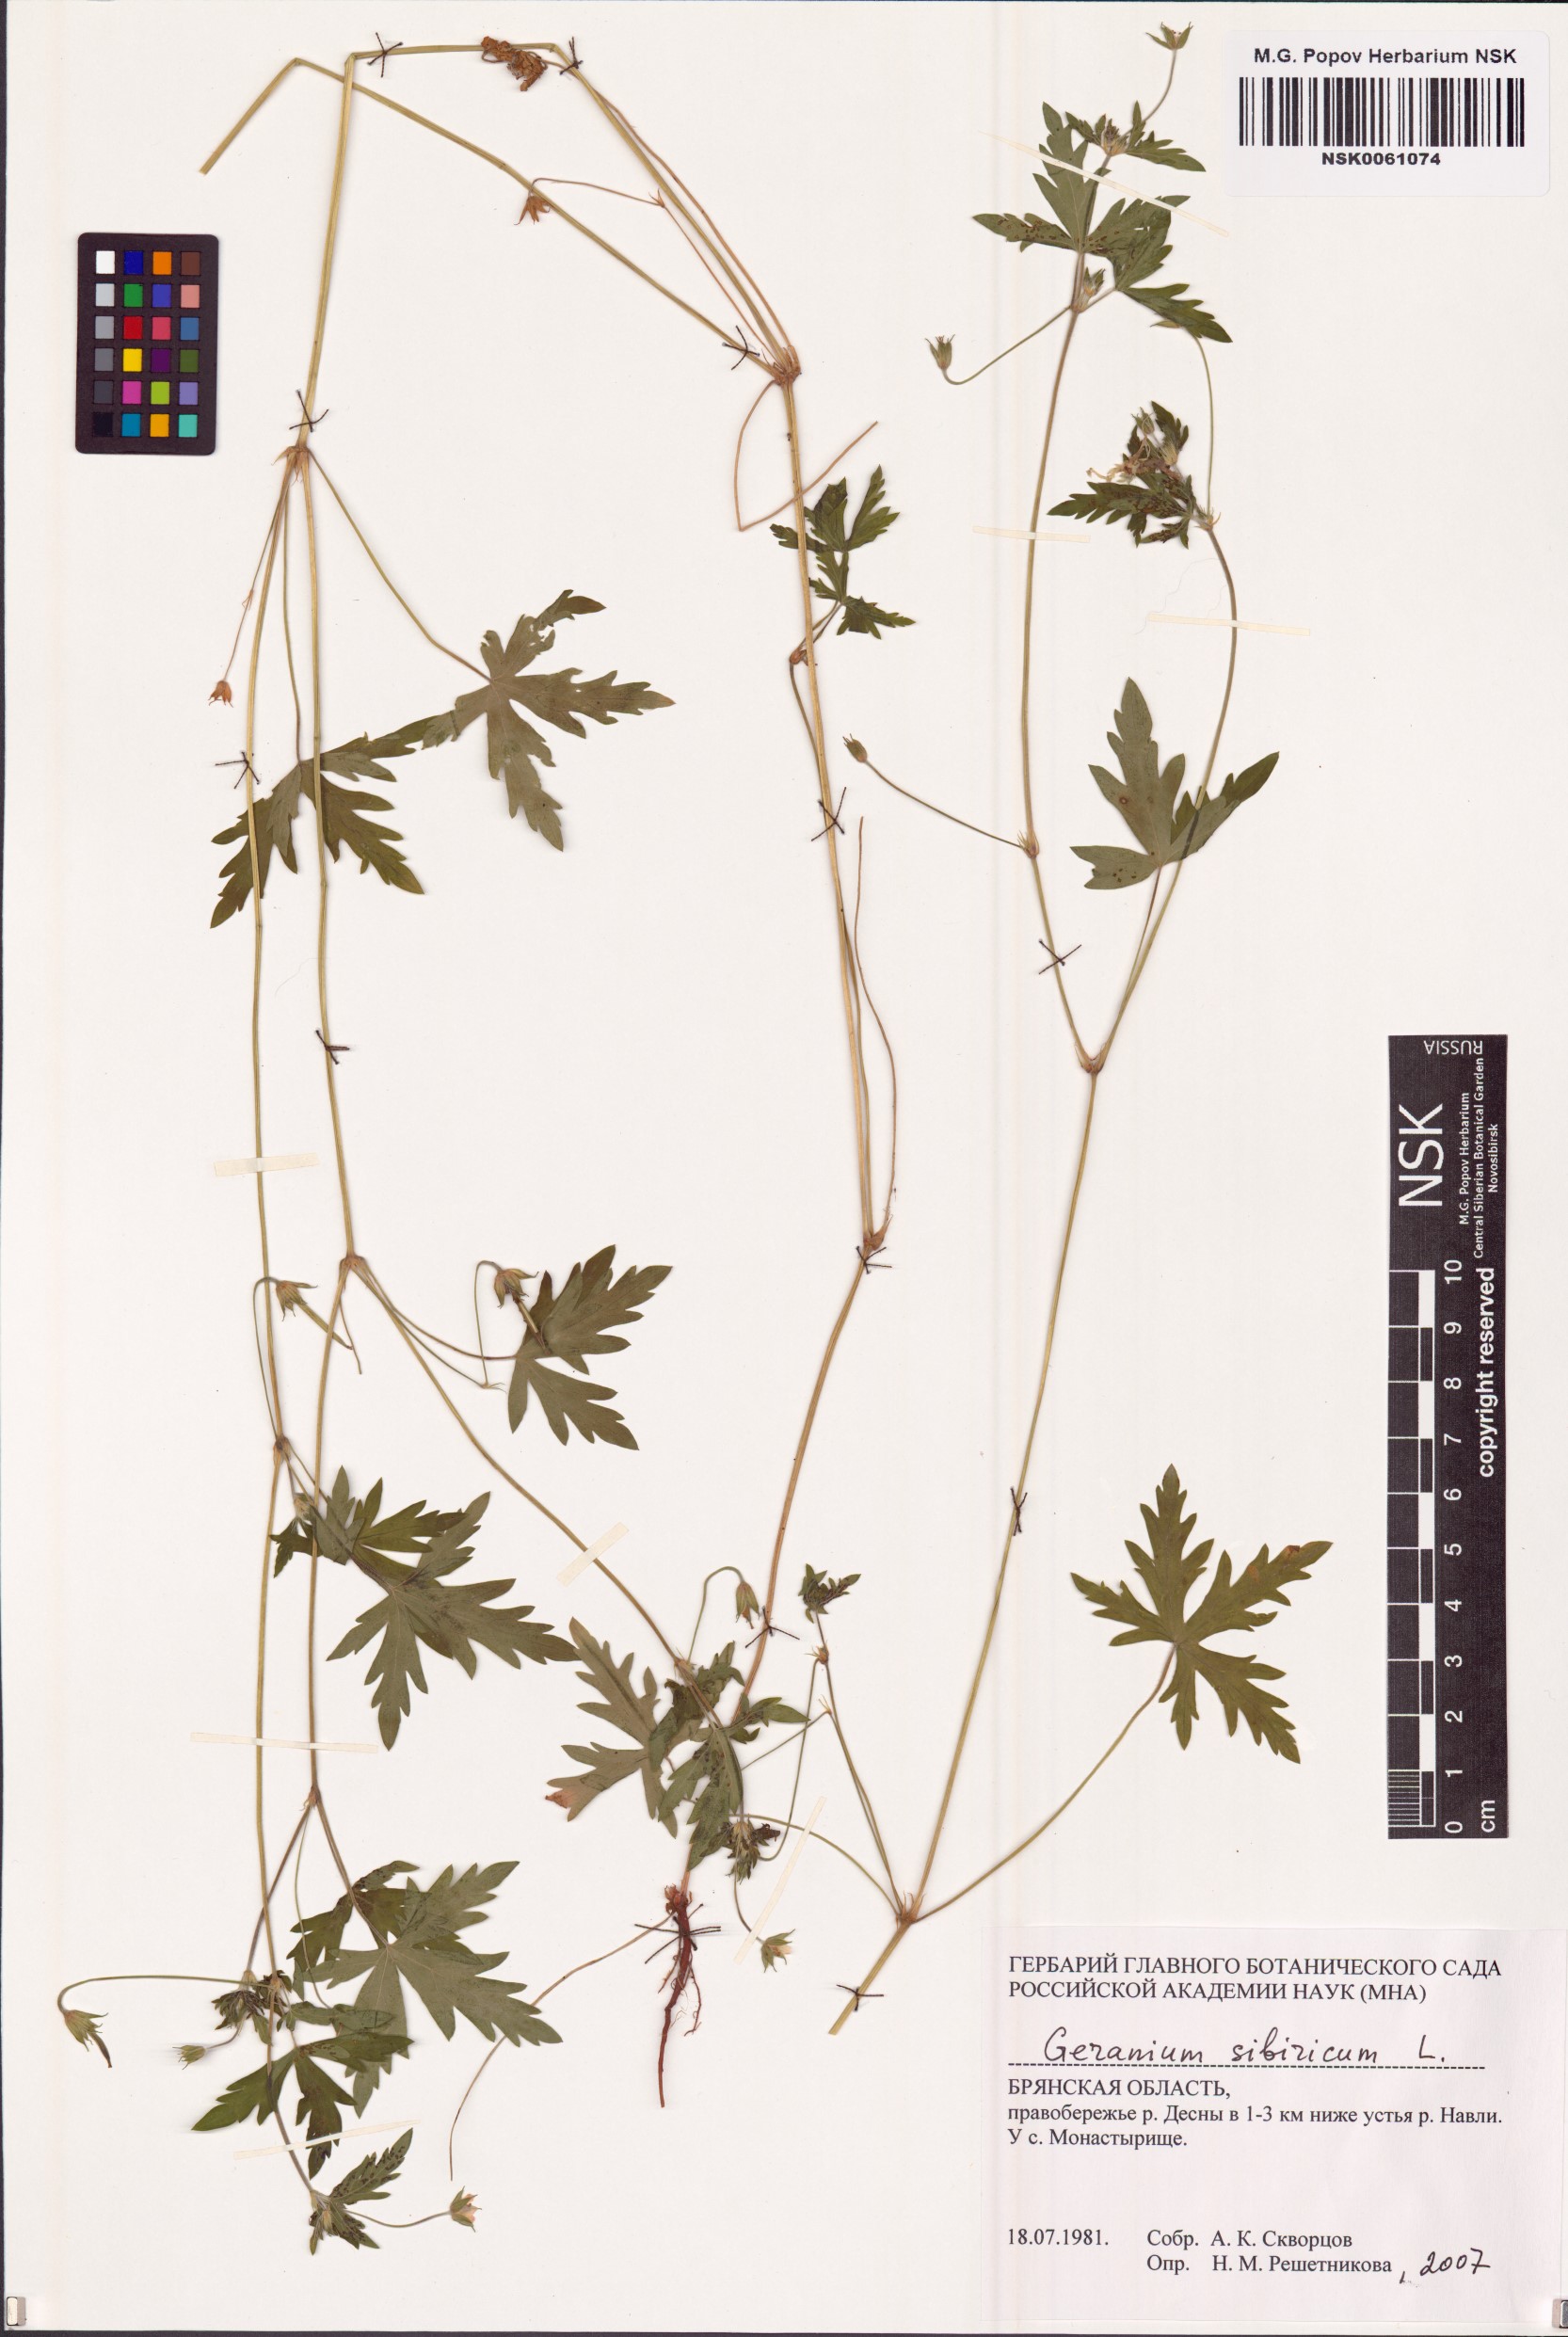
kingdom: Plantae
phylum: Tracheophyta
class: Magnoliopsida
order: Geraniales
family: Geraniaceae
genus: Geranium
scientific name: Geranium sibiricum
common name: Siberian crane's-bill
